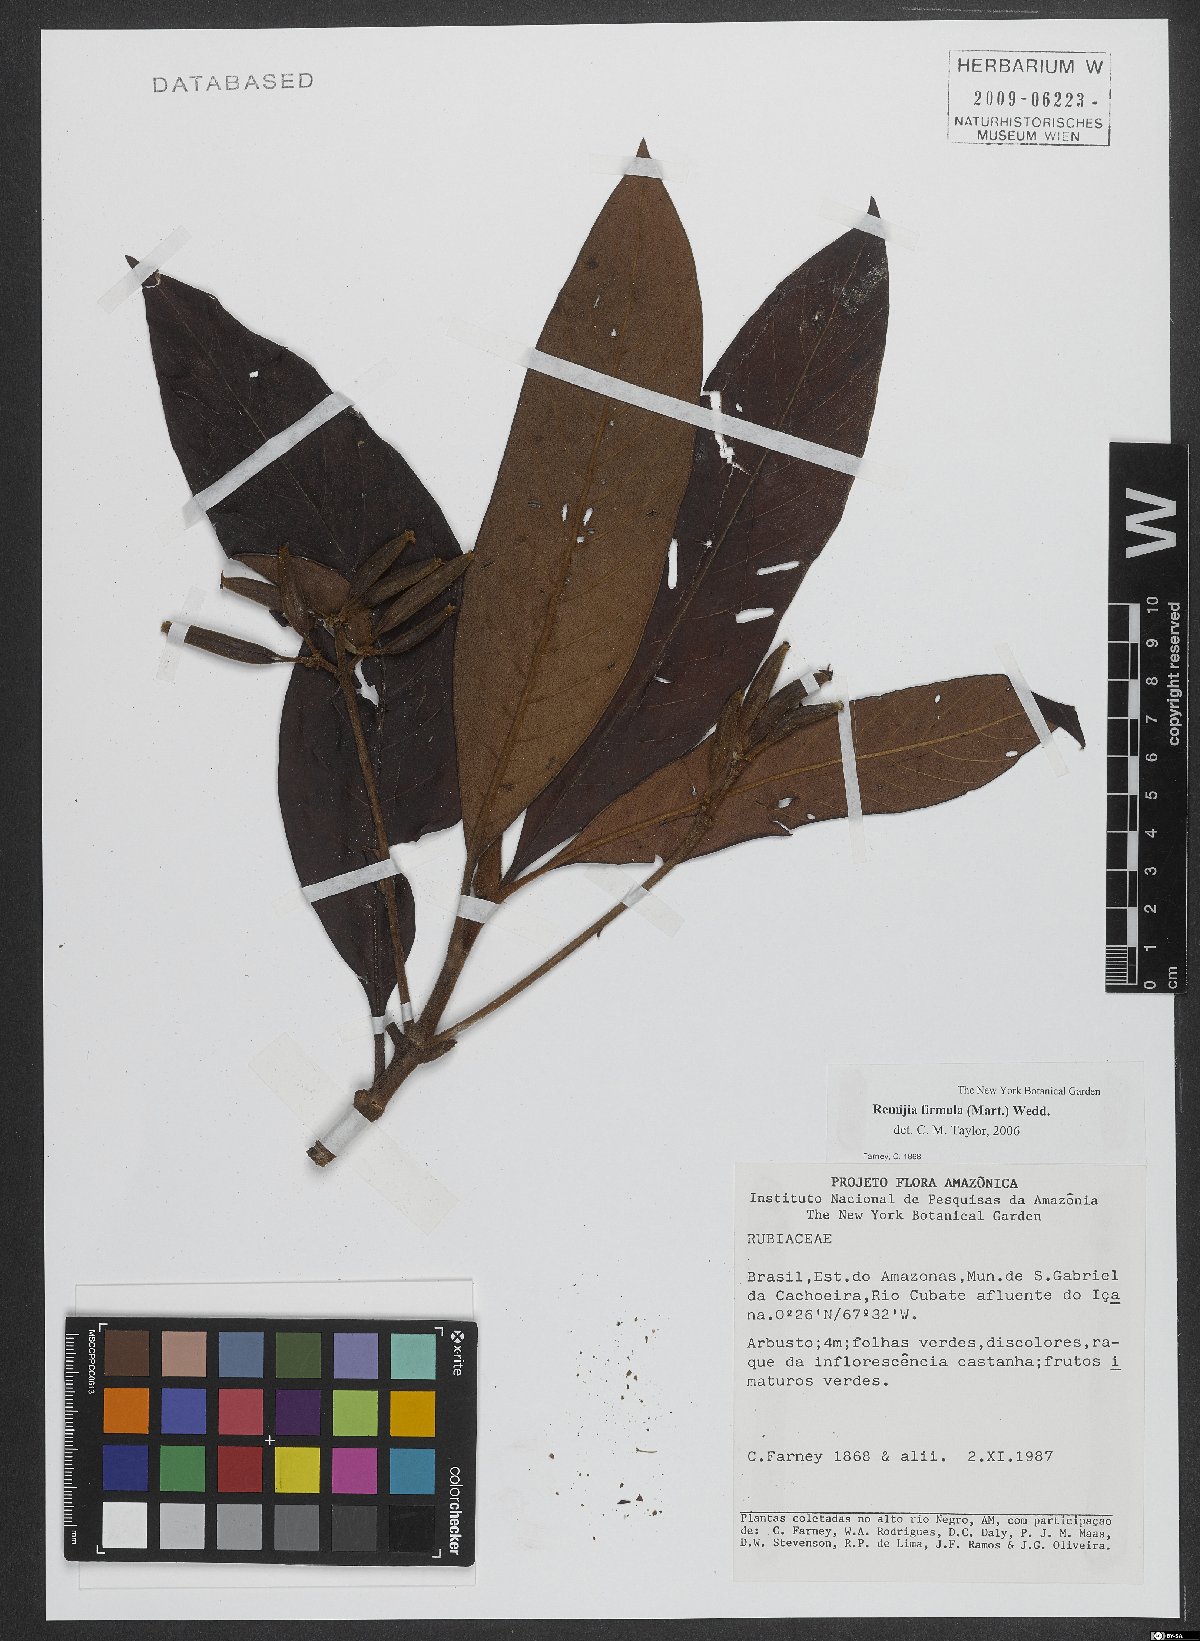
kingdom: Plantae
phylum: Tracheophyta
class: Magnoliopsida
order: Gentianales
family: Rubiaceae
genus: Remijia
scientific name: Remijia firmula
